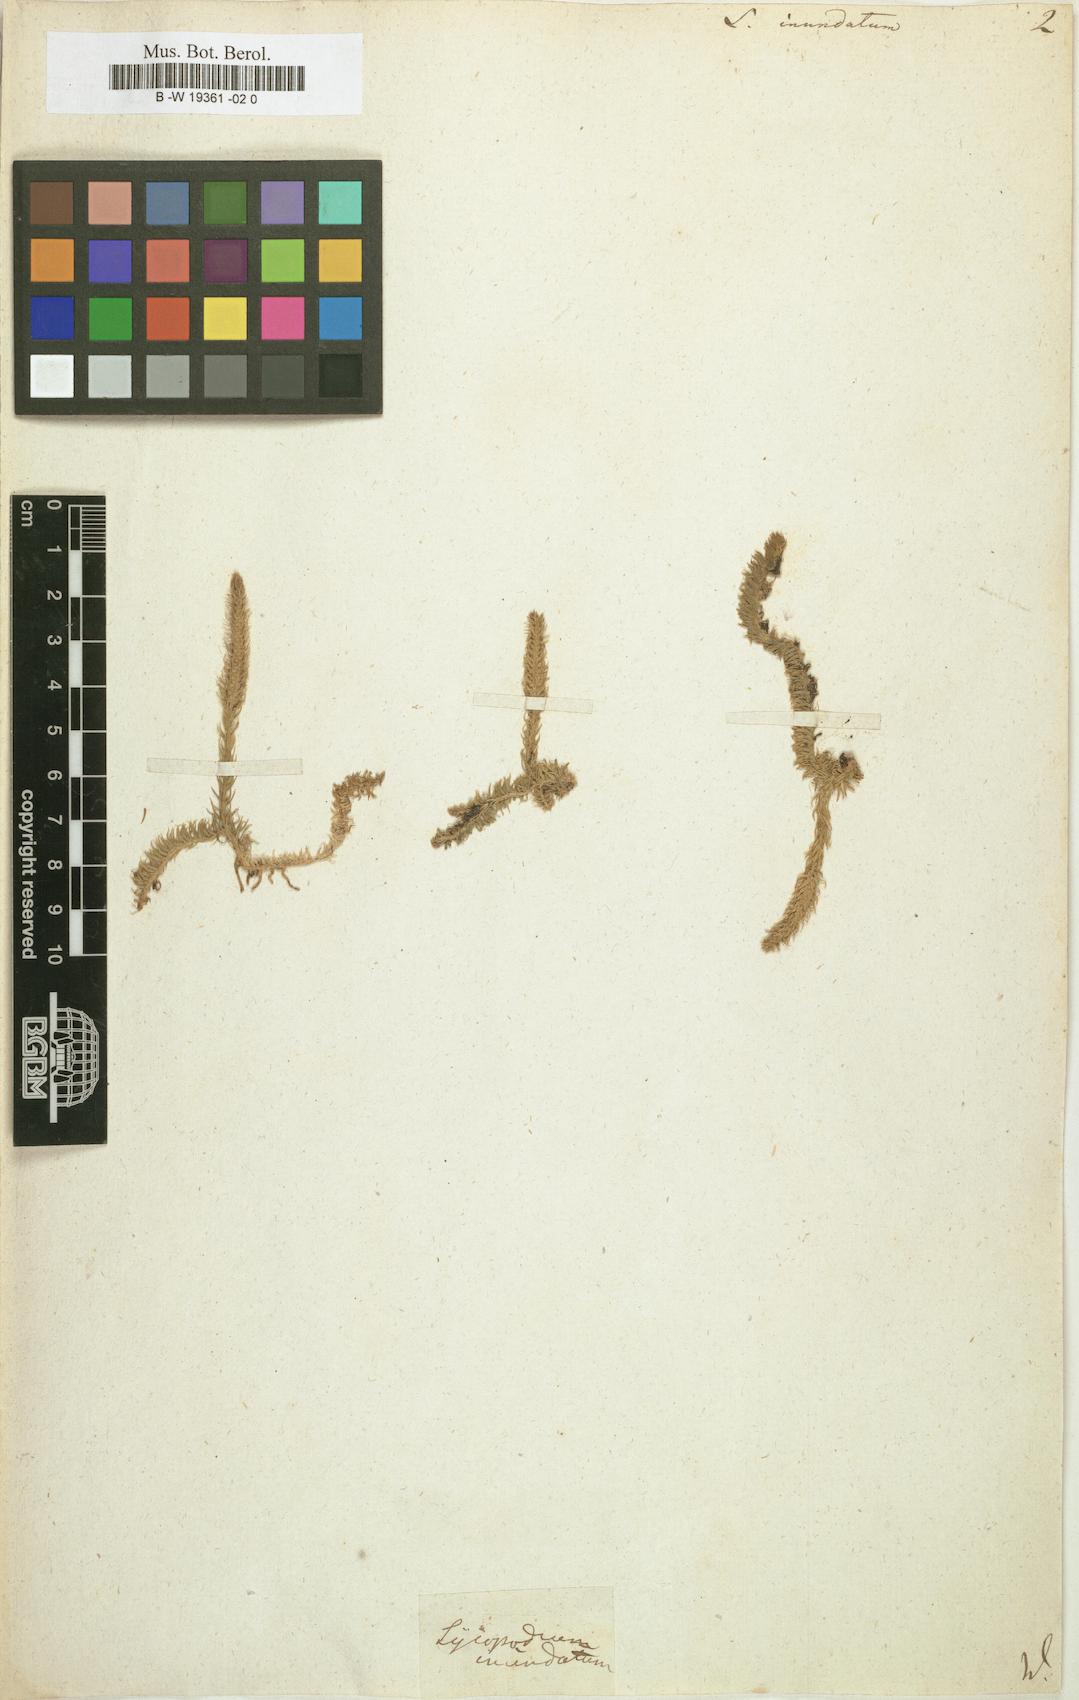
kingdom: Plantae
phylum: Tracheophyta
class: Lycopodiopsida
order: Lycopodiales
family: Lycopodiaceae
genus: Lycopodiella
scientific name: Lycopodiella inundata
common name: Marsh clubmoss
